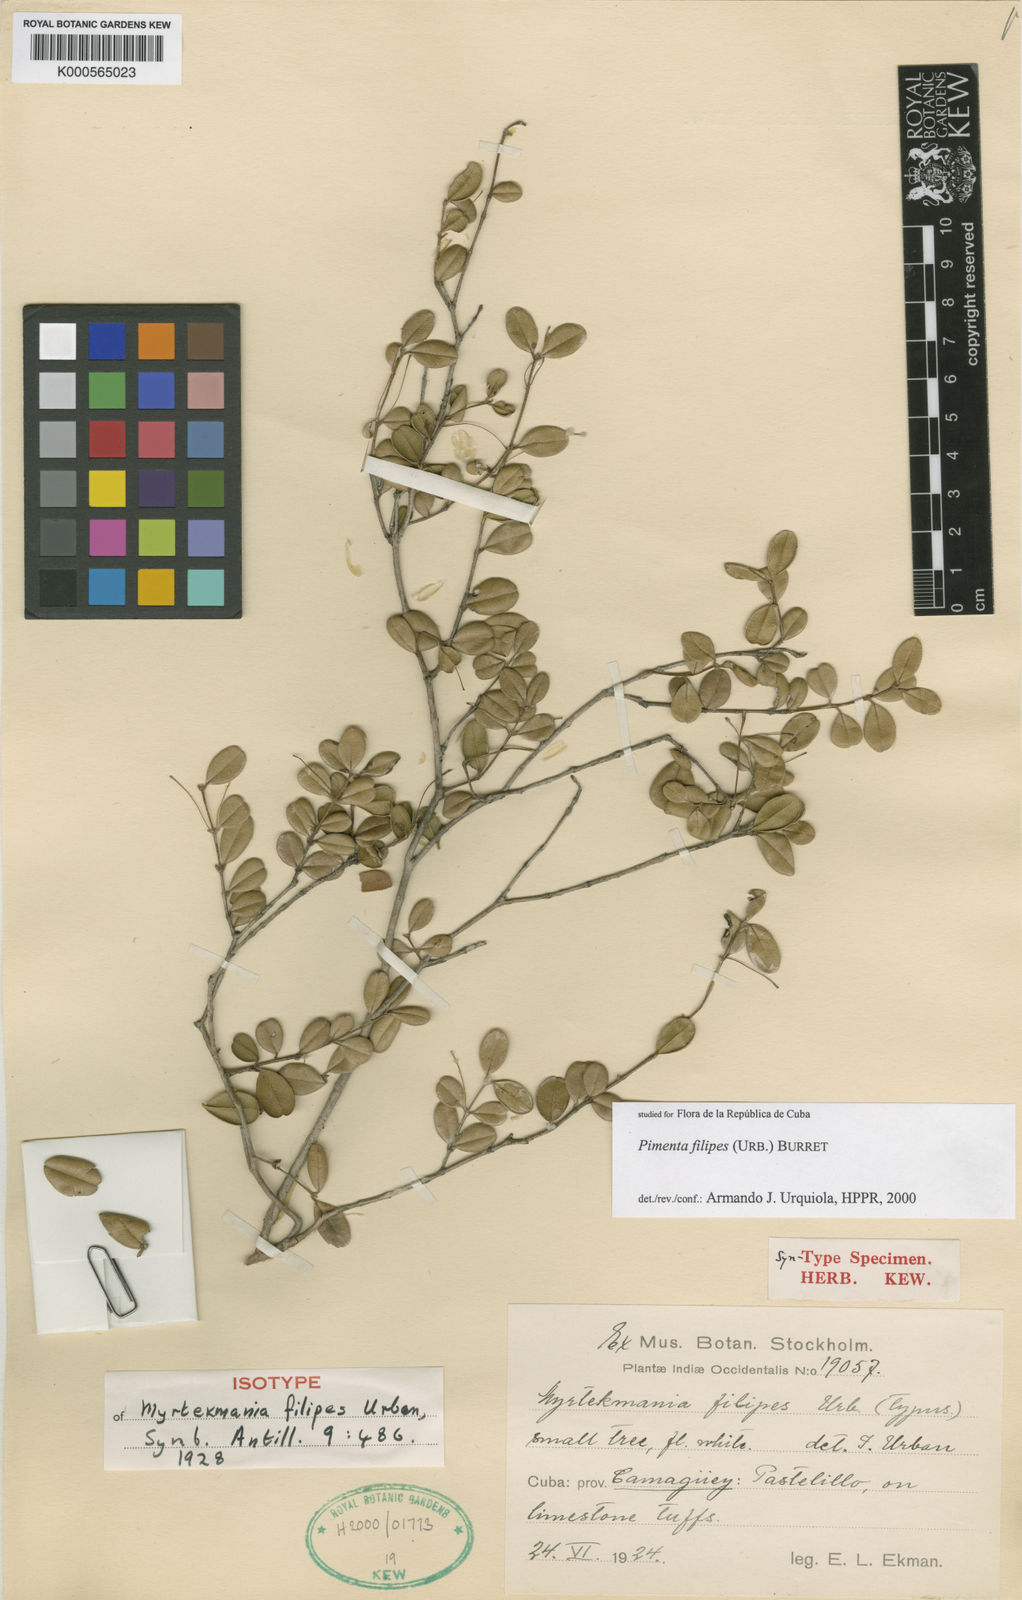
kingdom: Plantae
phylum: Tracheophyta
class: Magnoliopsida
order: Myrtales
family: Myrtaceae
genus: Pimenta
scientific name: Pimenta filipes
